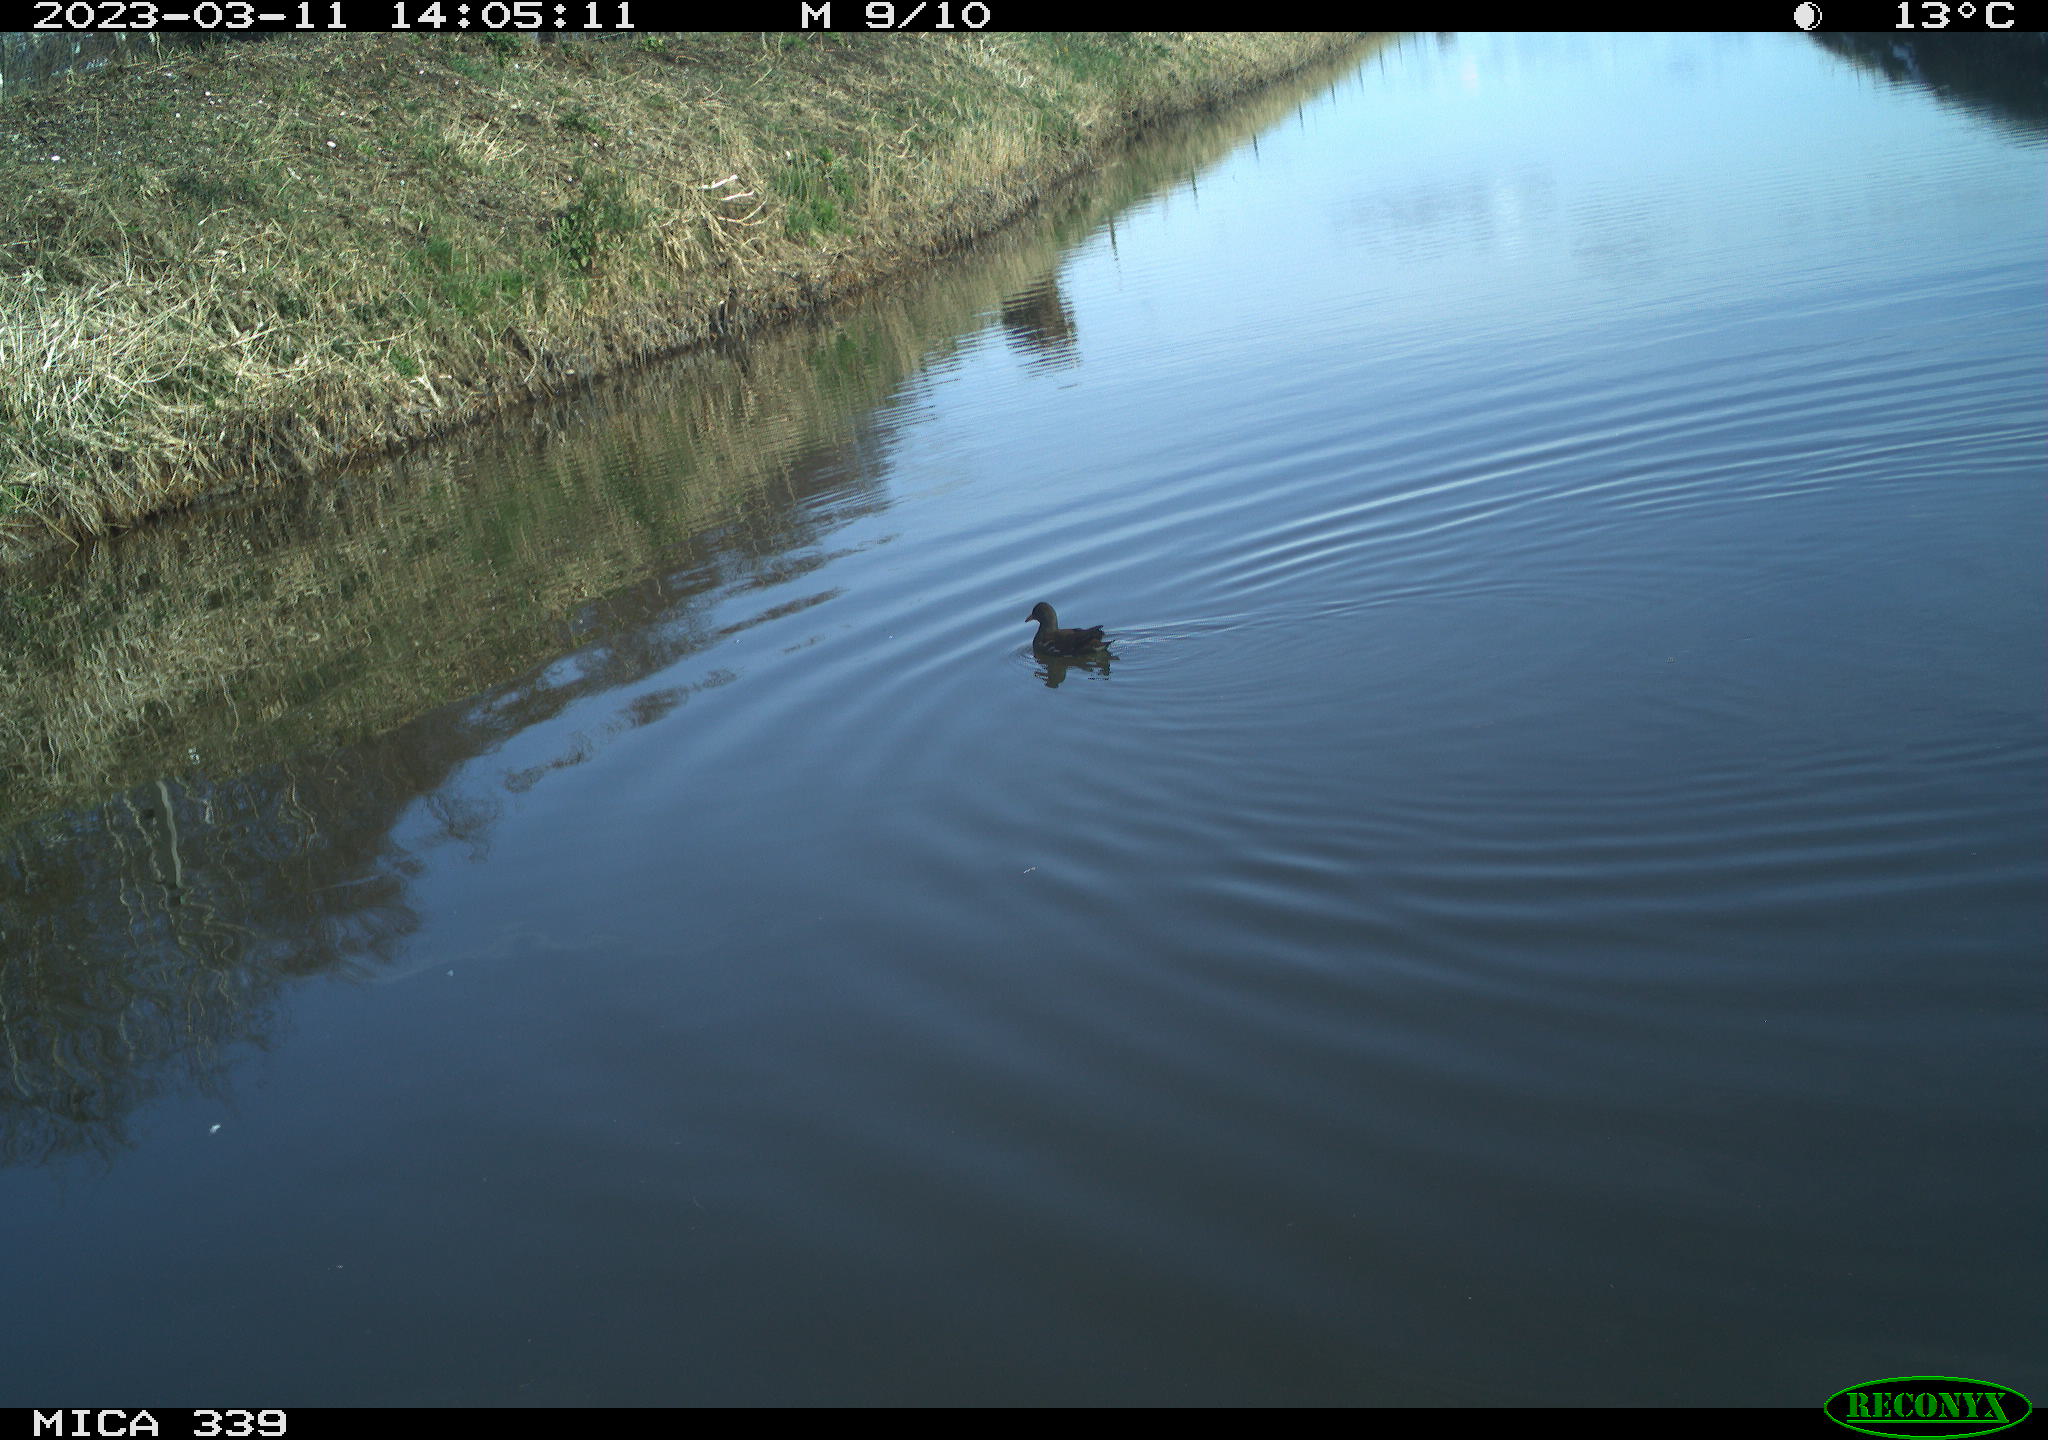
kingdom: Animalia
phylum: Chordata
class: Aves
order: Gruiformes
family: Rallidae
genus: Gallinula
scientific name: Gallinula chloropus
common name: Common moorhen
